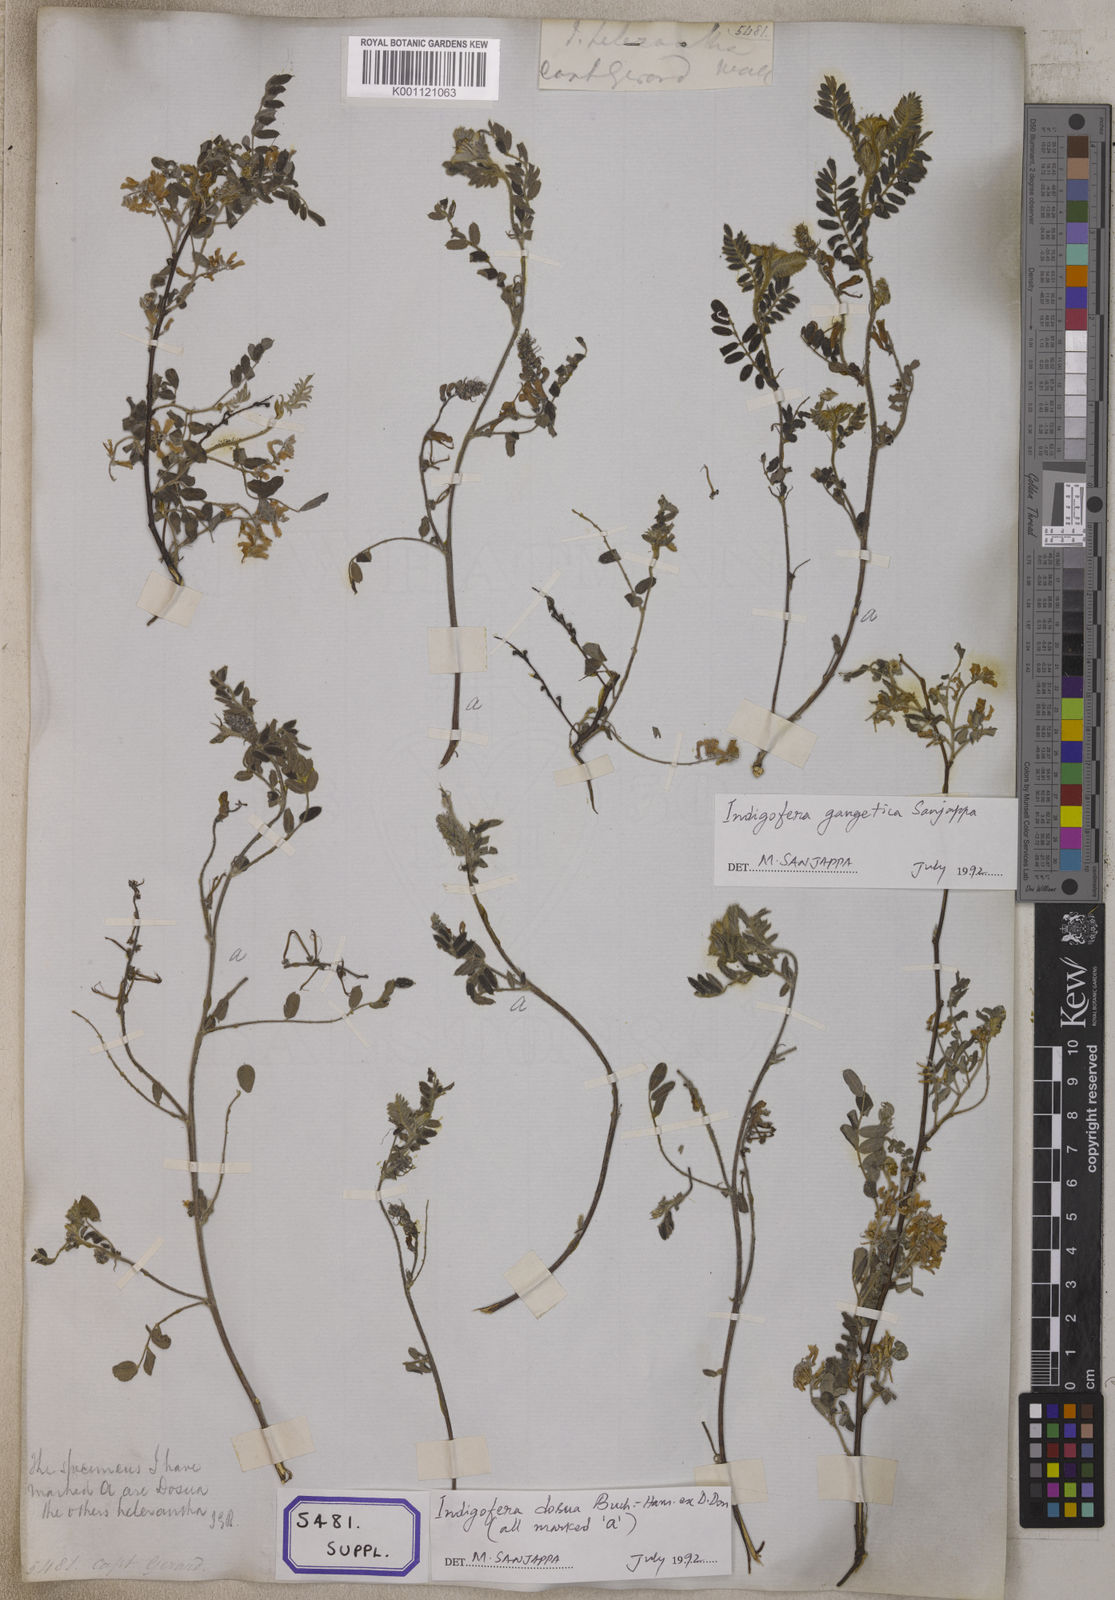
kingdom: Plantae
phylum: Tracheophyta
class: Magnoliopsida
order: Fabales
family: Fabaceae
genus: Indigofera
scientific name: Indigofera
